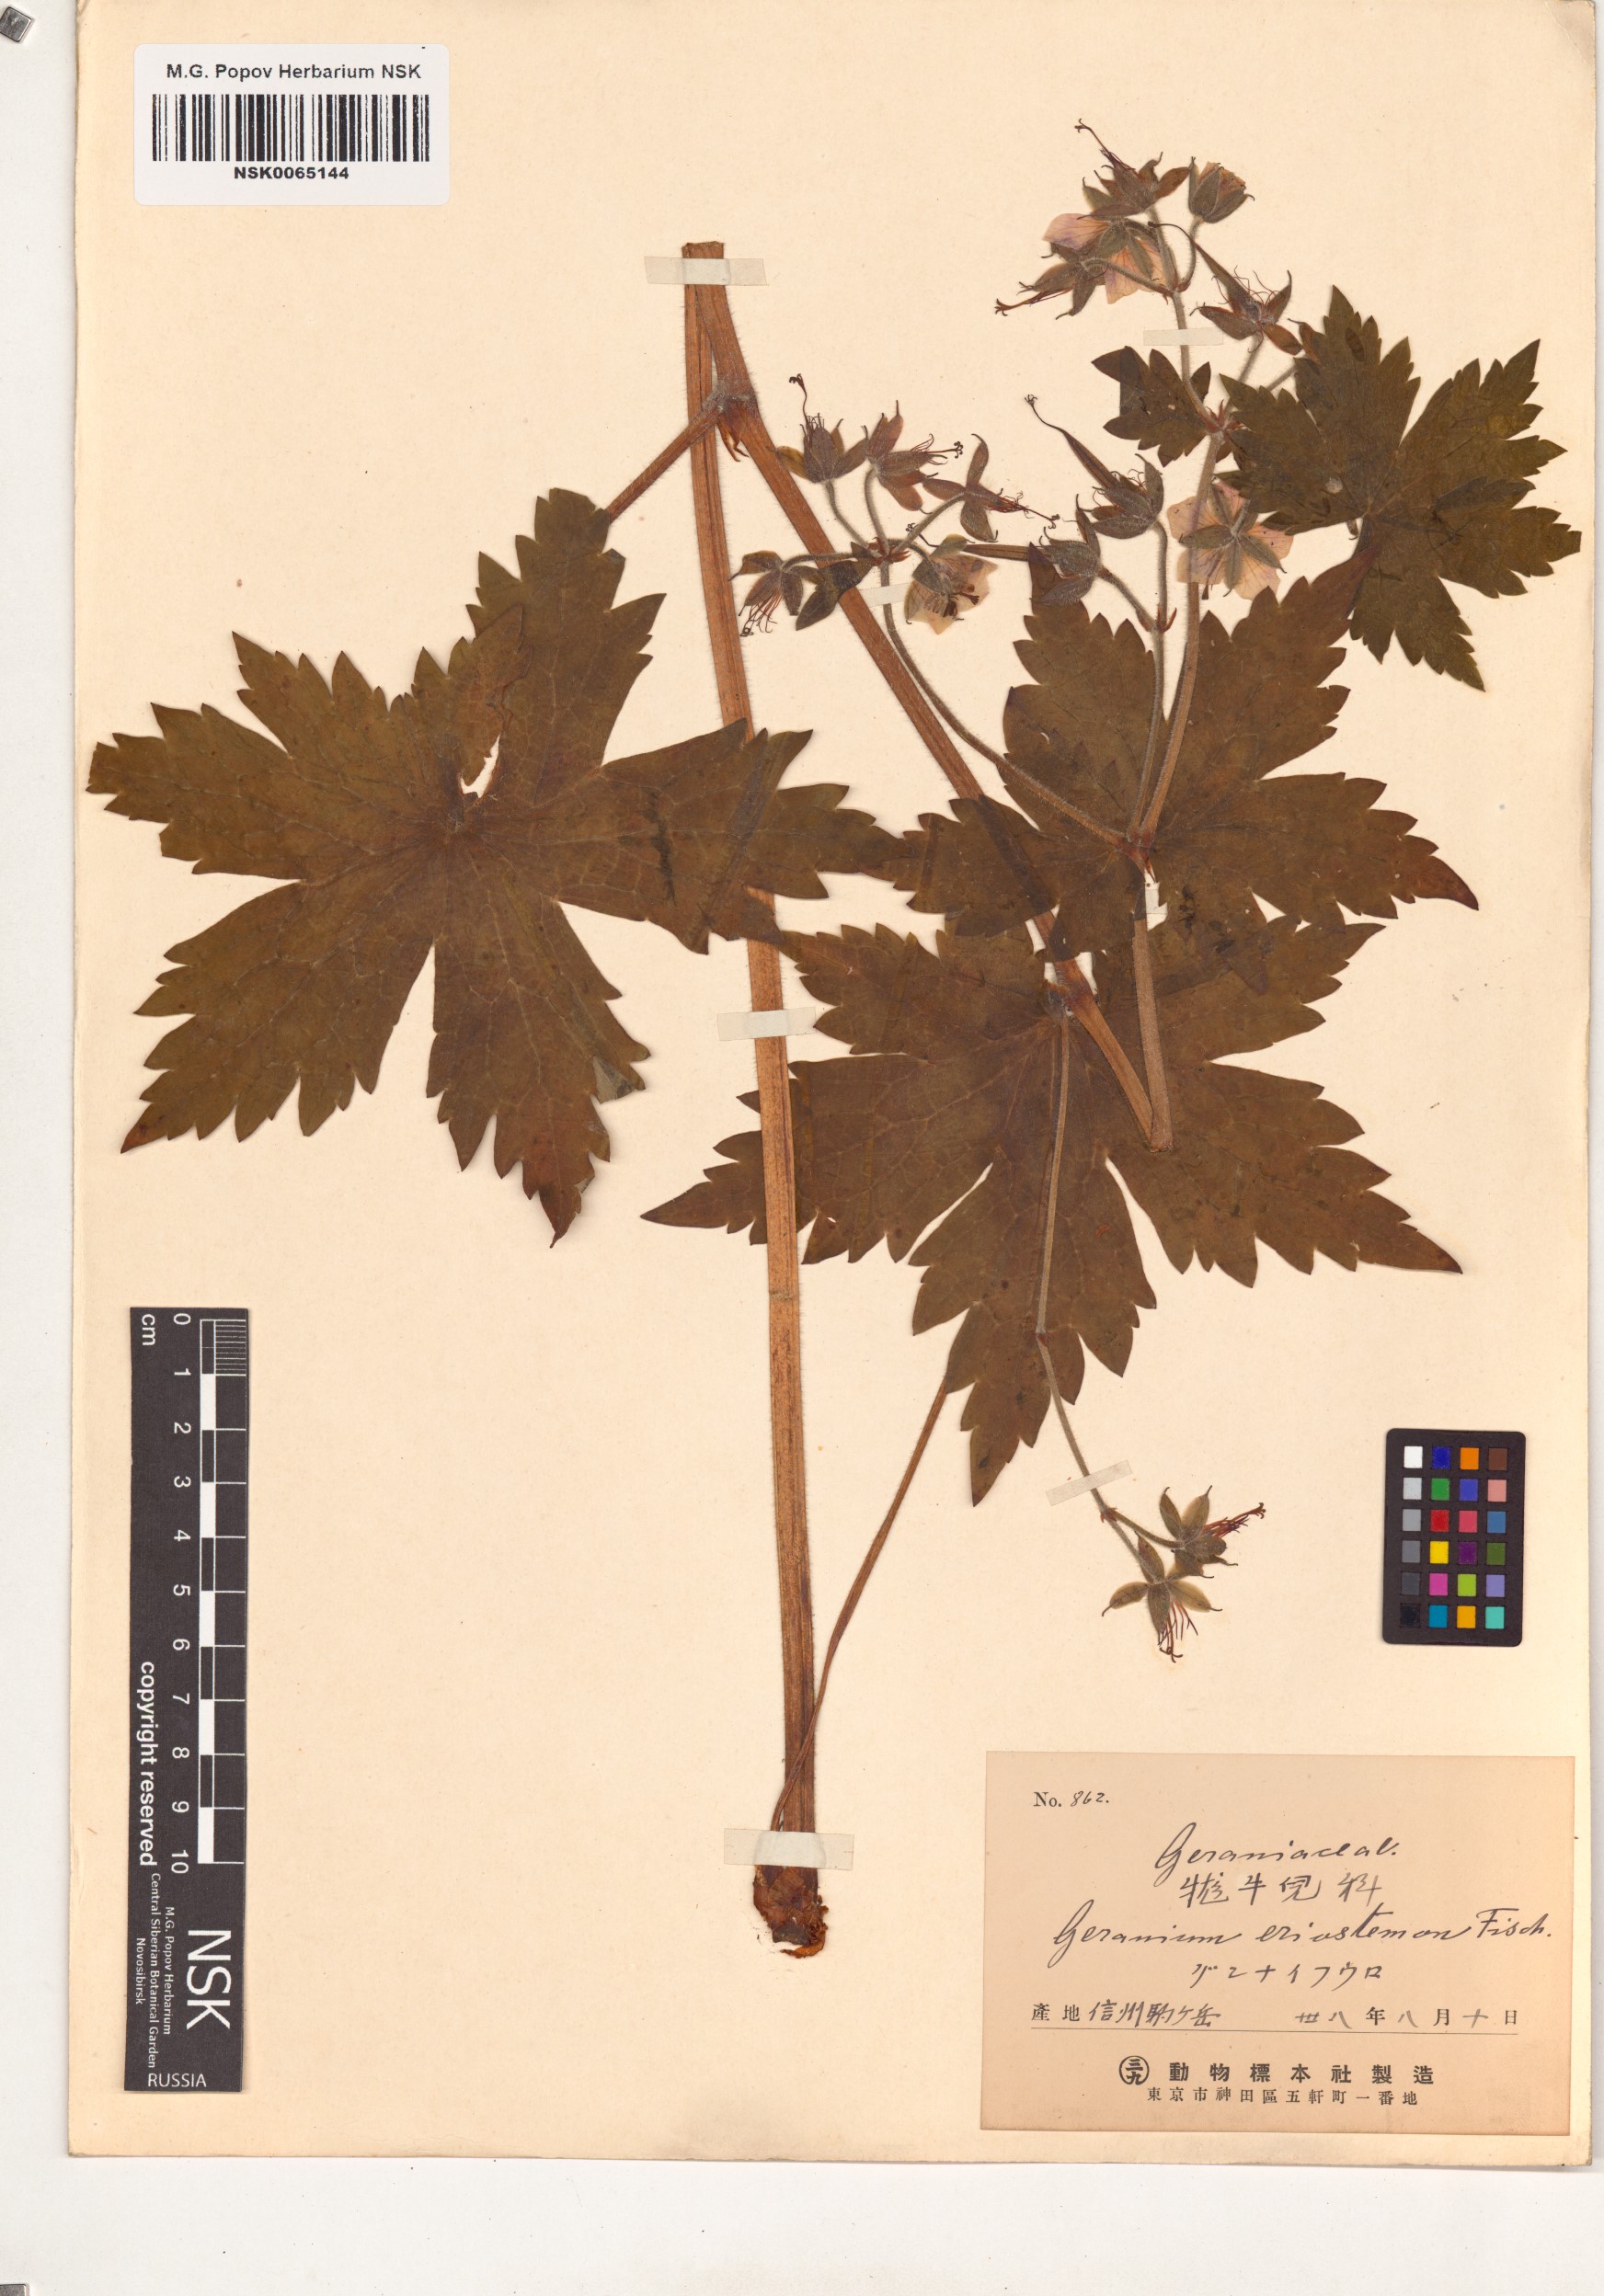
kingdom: Plantae
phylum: Tracheophyta
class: Magnoliopsida
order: Geraniales
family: Geraniaceae
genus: Geranium
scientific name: Geranium platyanthum
